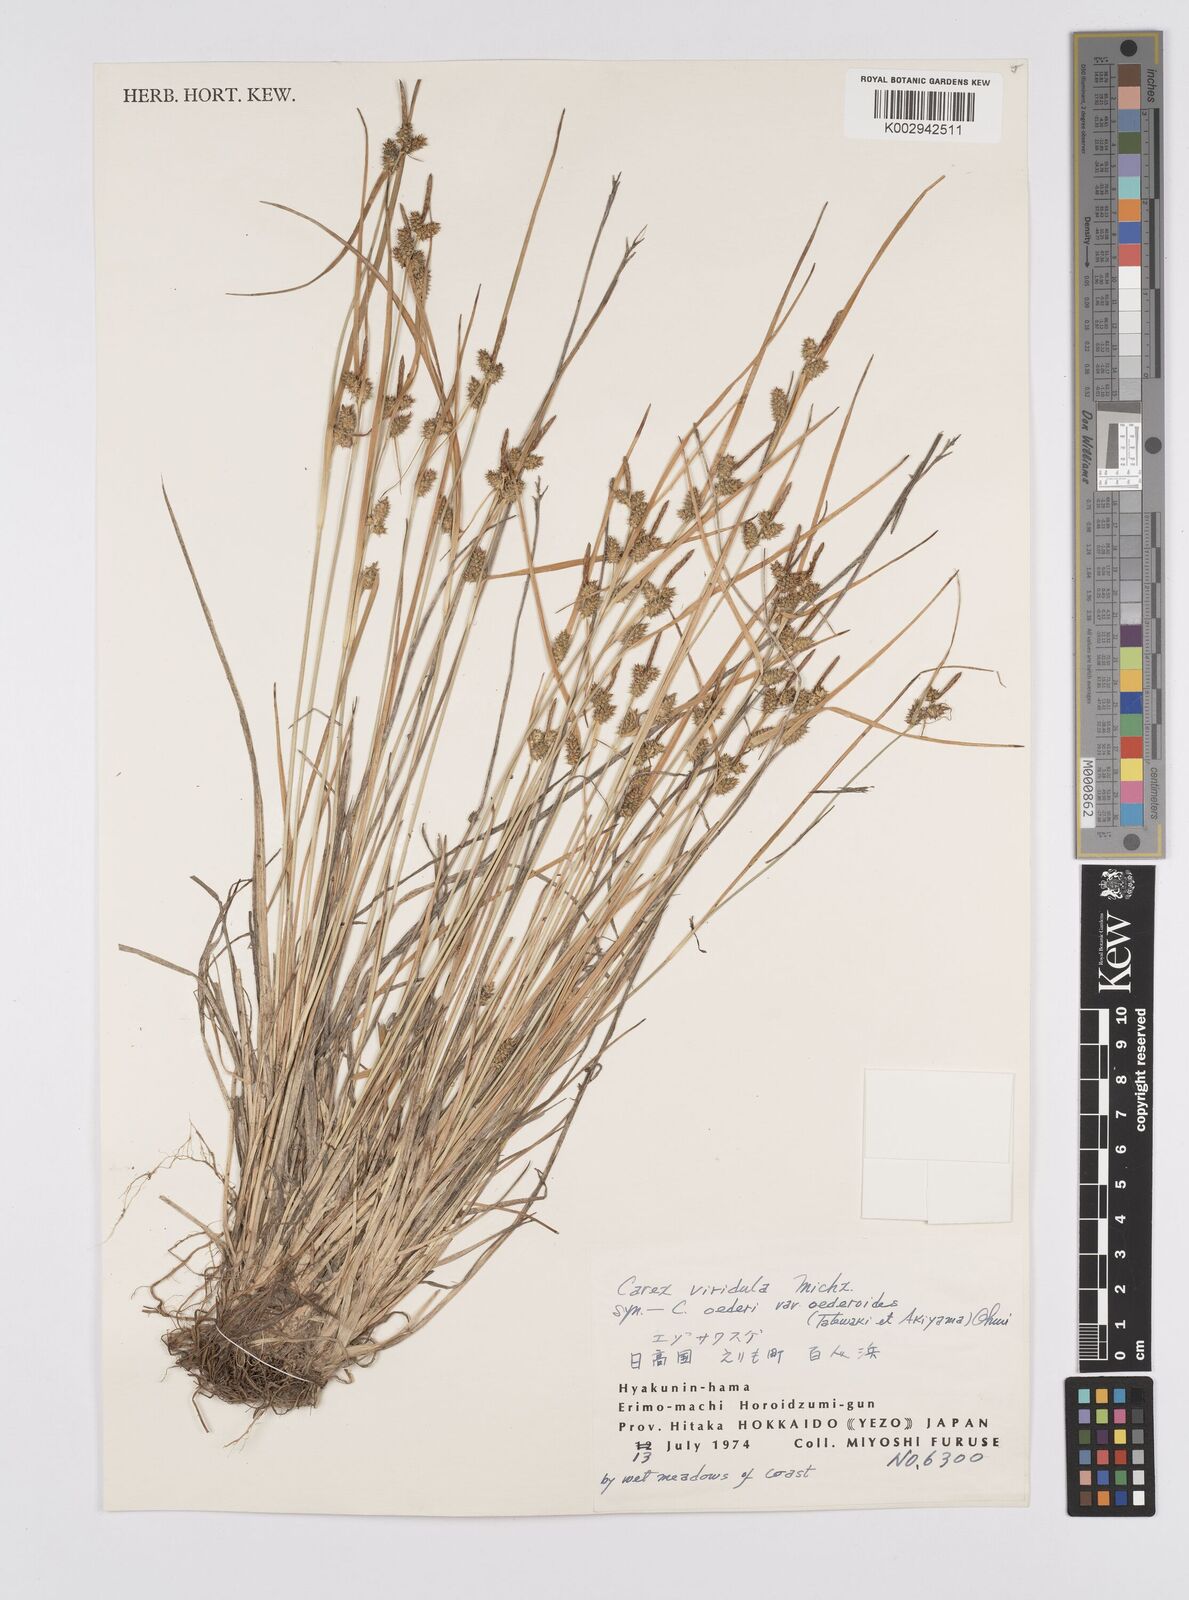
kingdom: Plantae
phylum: Tracheophyta
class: Liliopsida
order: Poales
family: Cyperaceae
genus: Carex
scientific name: Carex oederi
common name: Common & small-fruited yellow-sedge
